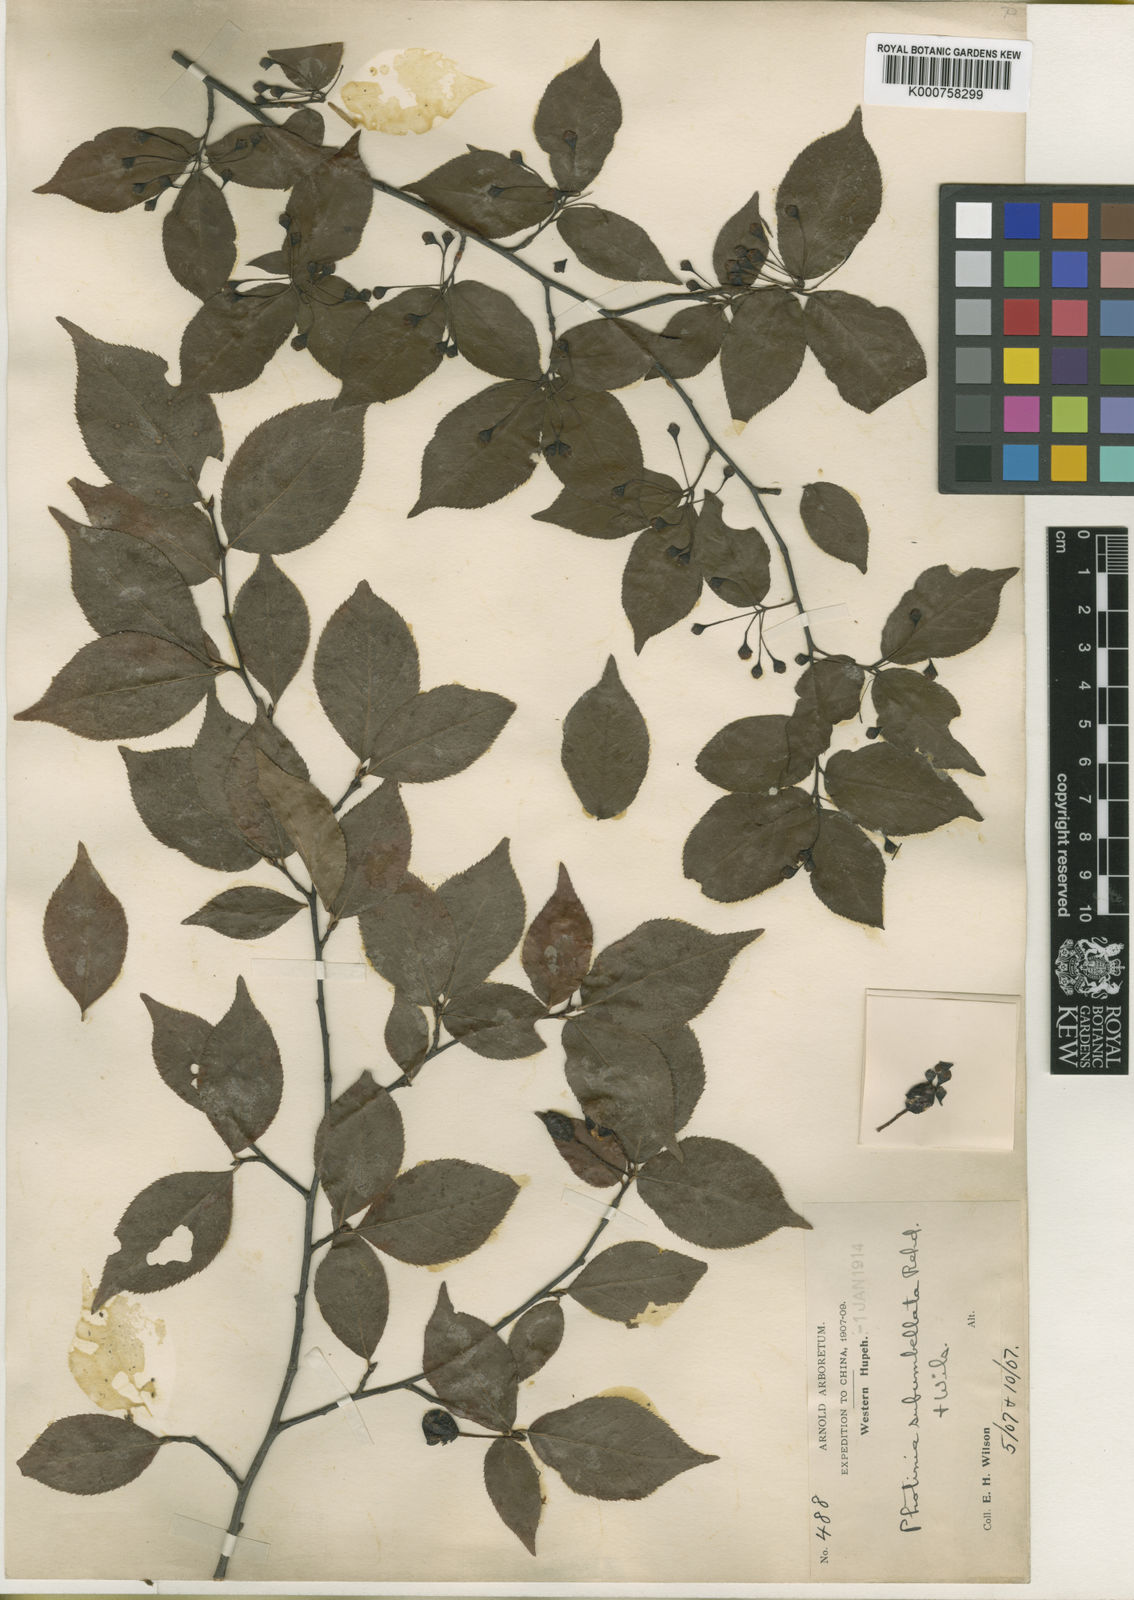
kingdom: Plantae
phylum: Tracheophyta
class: Magnoliopsida
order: Rosales
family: Rosaceae
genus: Pourthiaea
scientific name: Pourthiaea parviflora
